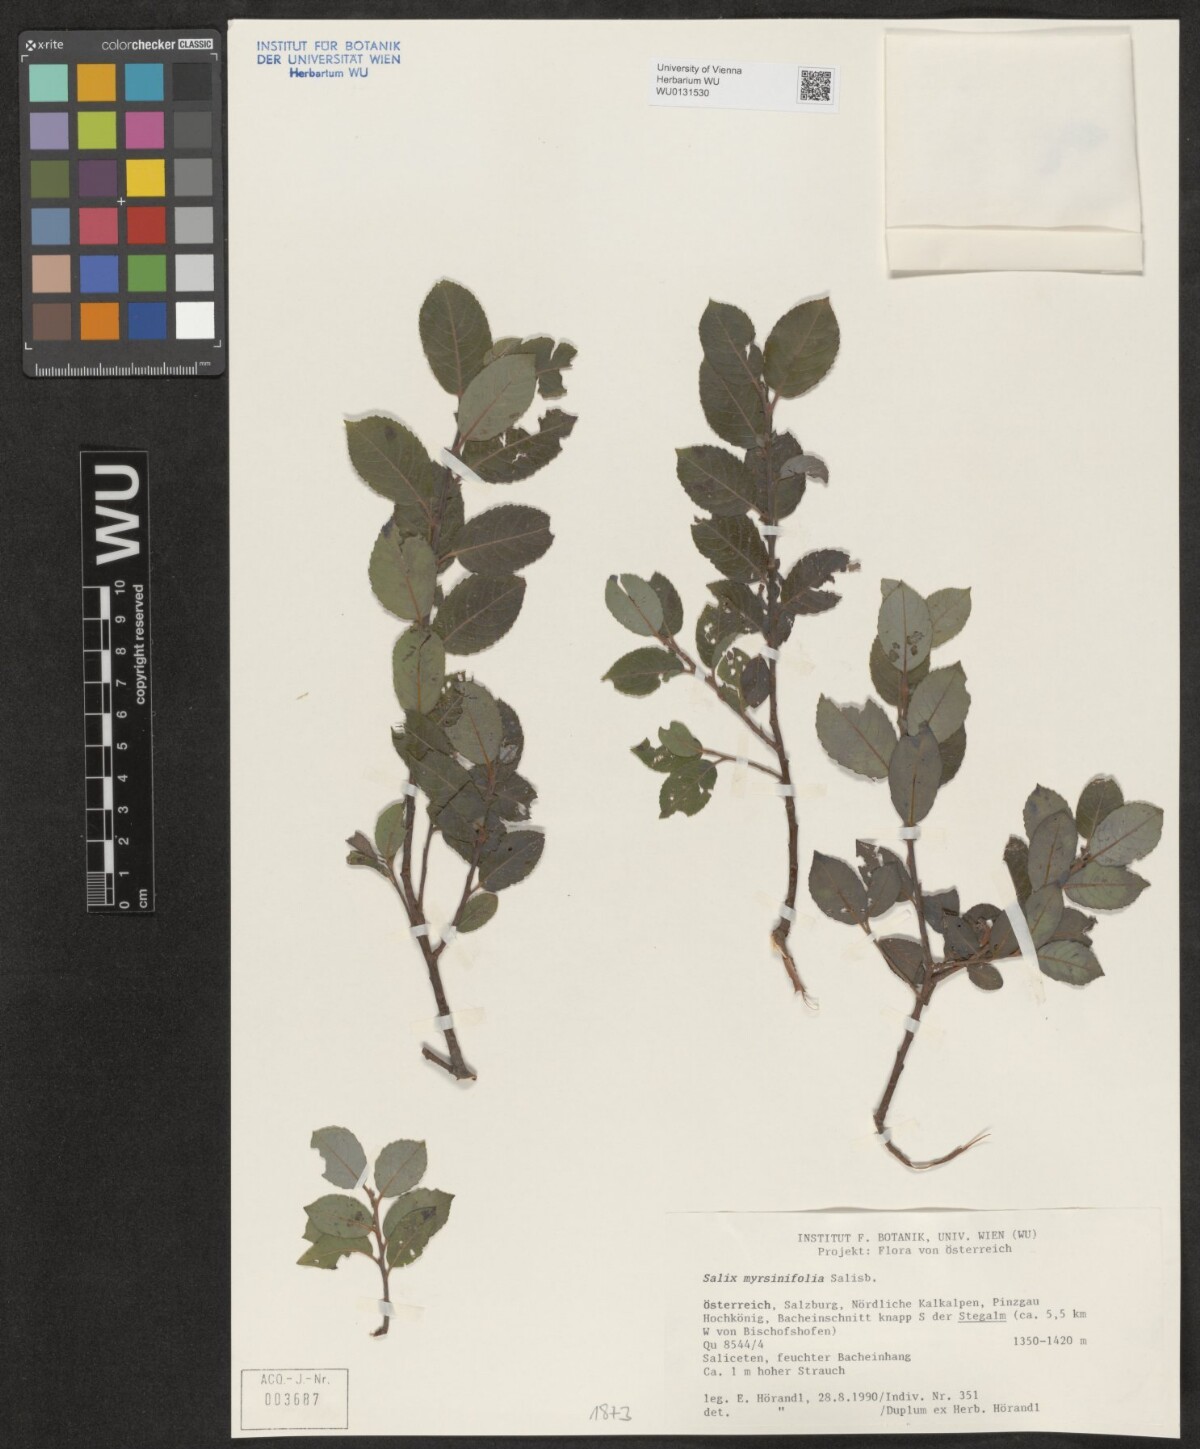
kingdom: Plantae
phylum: Tracheophyta
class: Magnoliopsida
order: Malpighiales
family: Salicaceae
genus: Salix
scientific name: Salix myrsinifolia
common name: Dark-leaved willow
